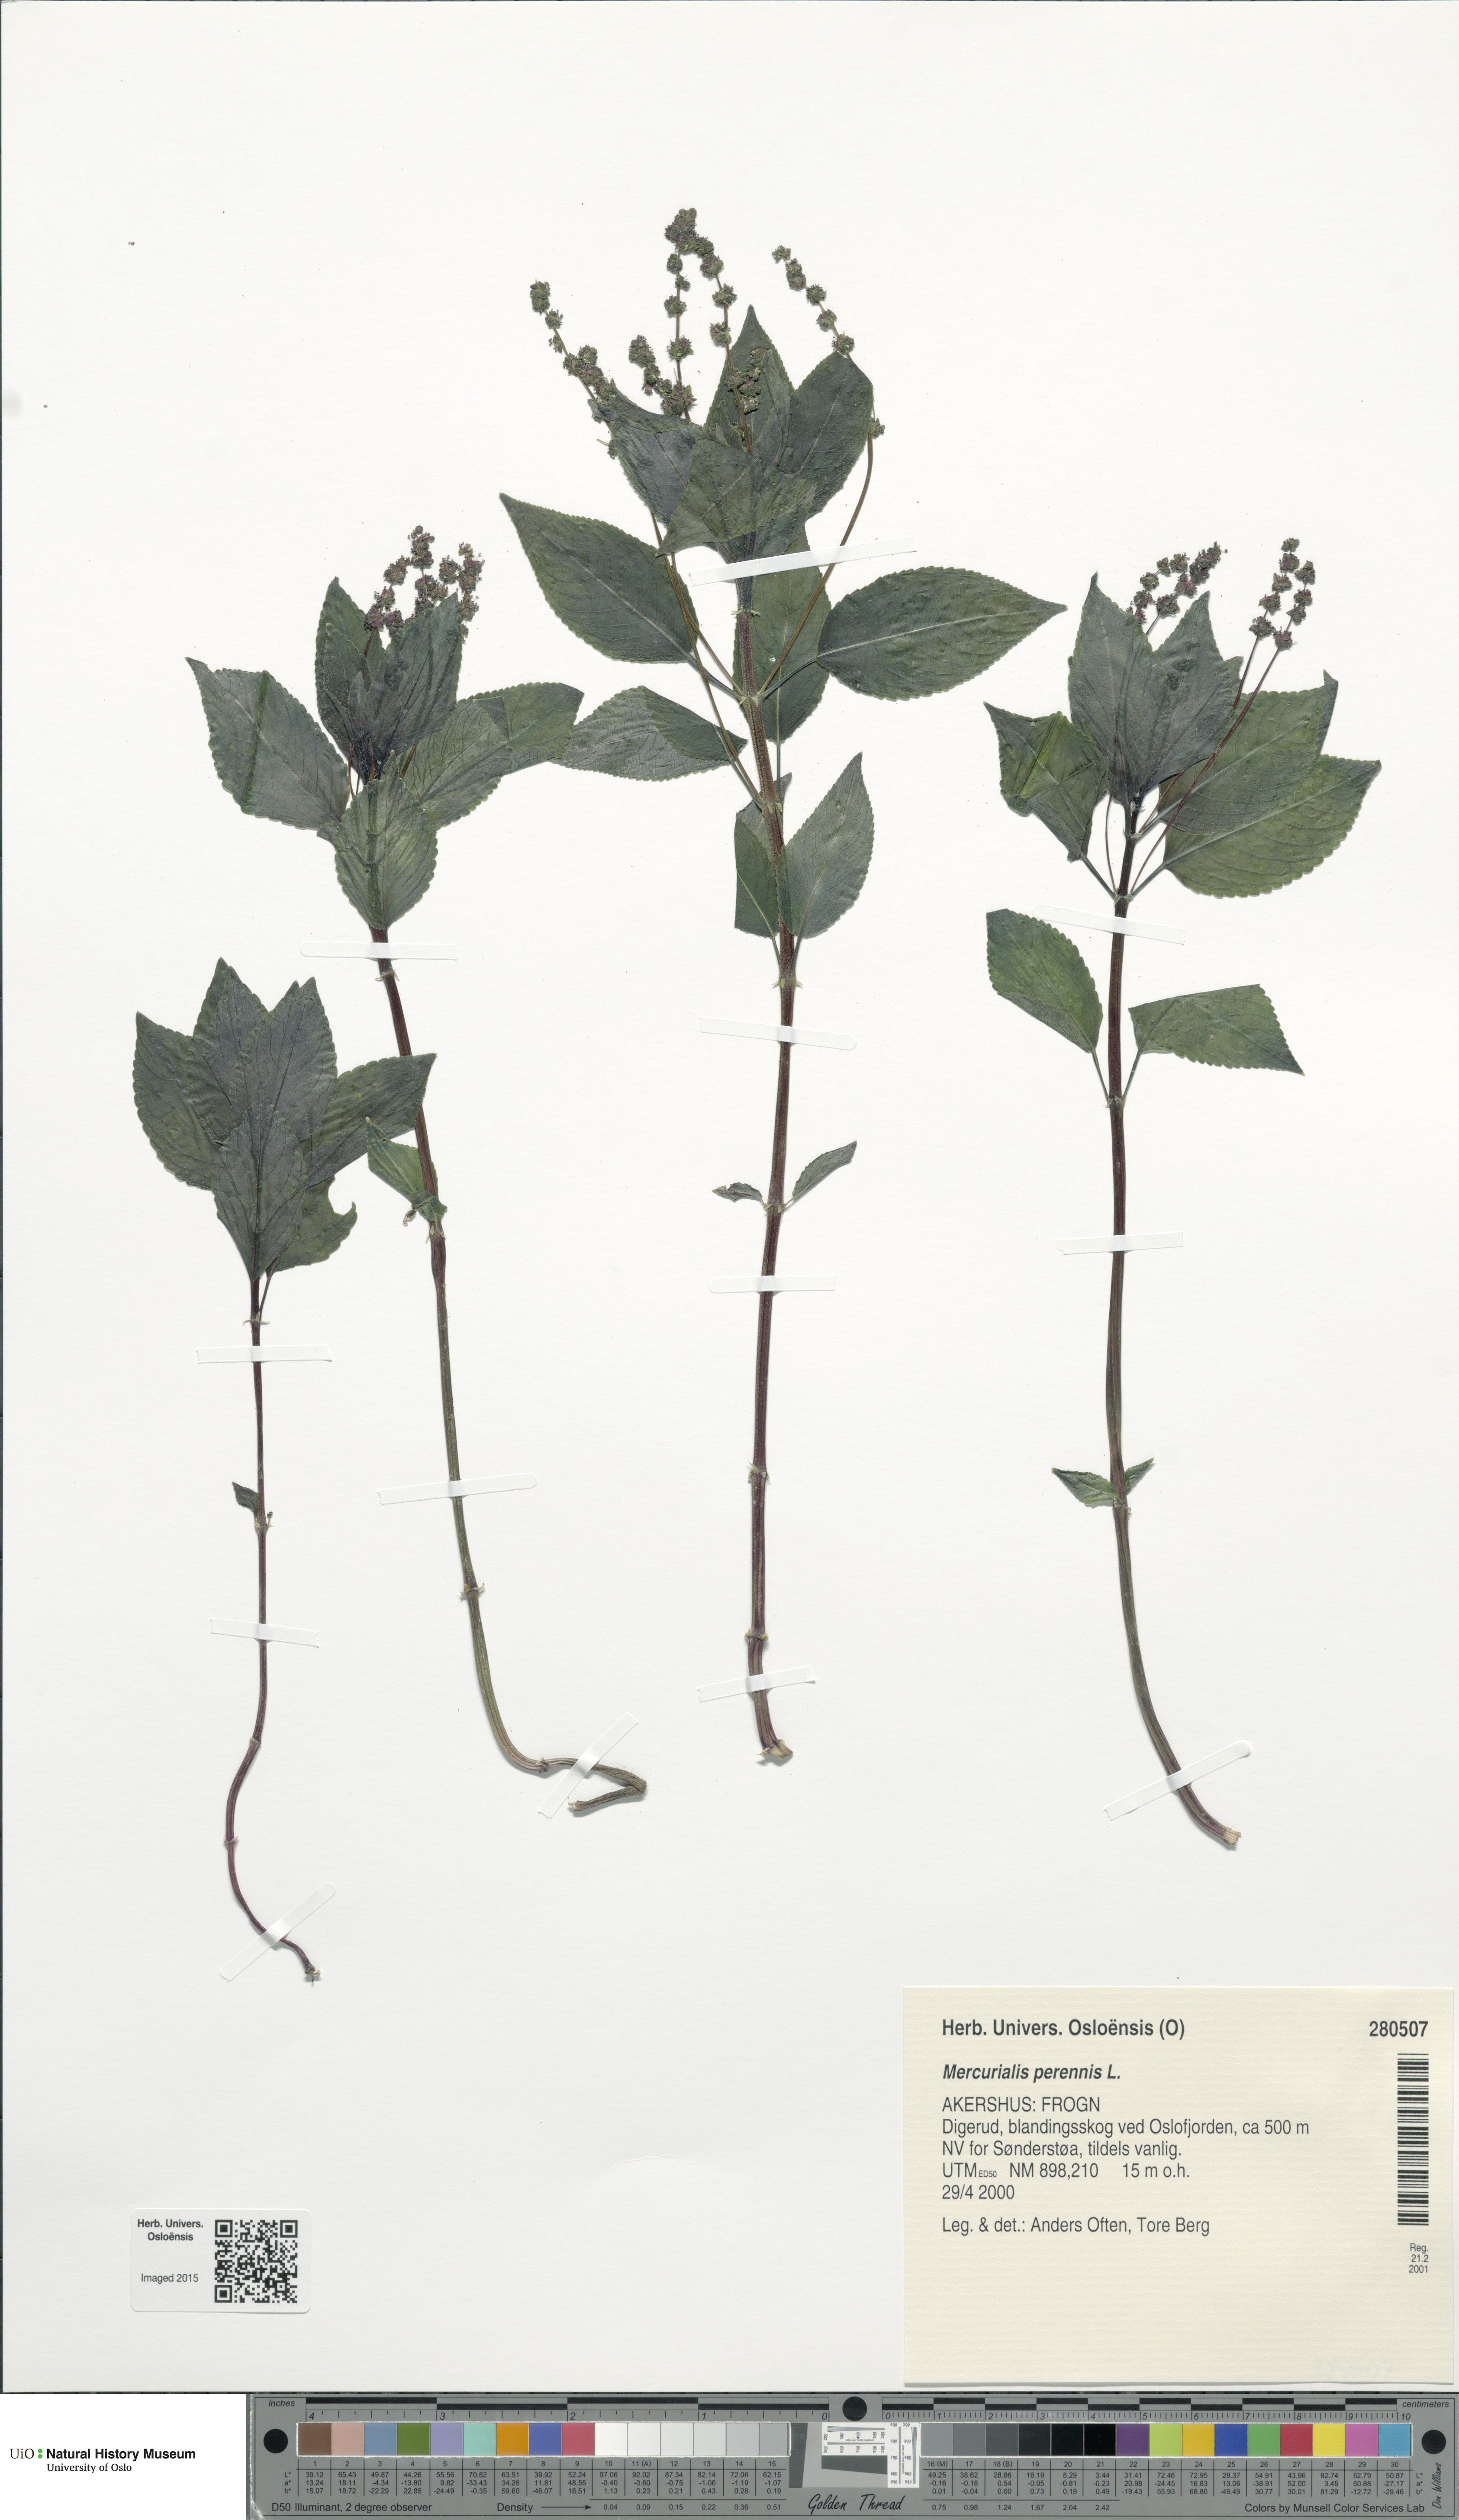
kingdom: Plantae
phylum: Tracheophyta
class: Magnoliopsida
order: Malpighiales
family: Euphorbiaceae
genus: Mercurialis
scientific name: Mercurialis perennis
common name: Dog mercury
